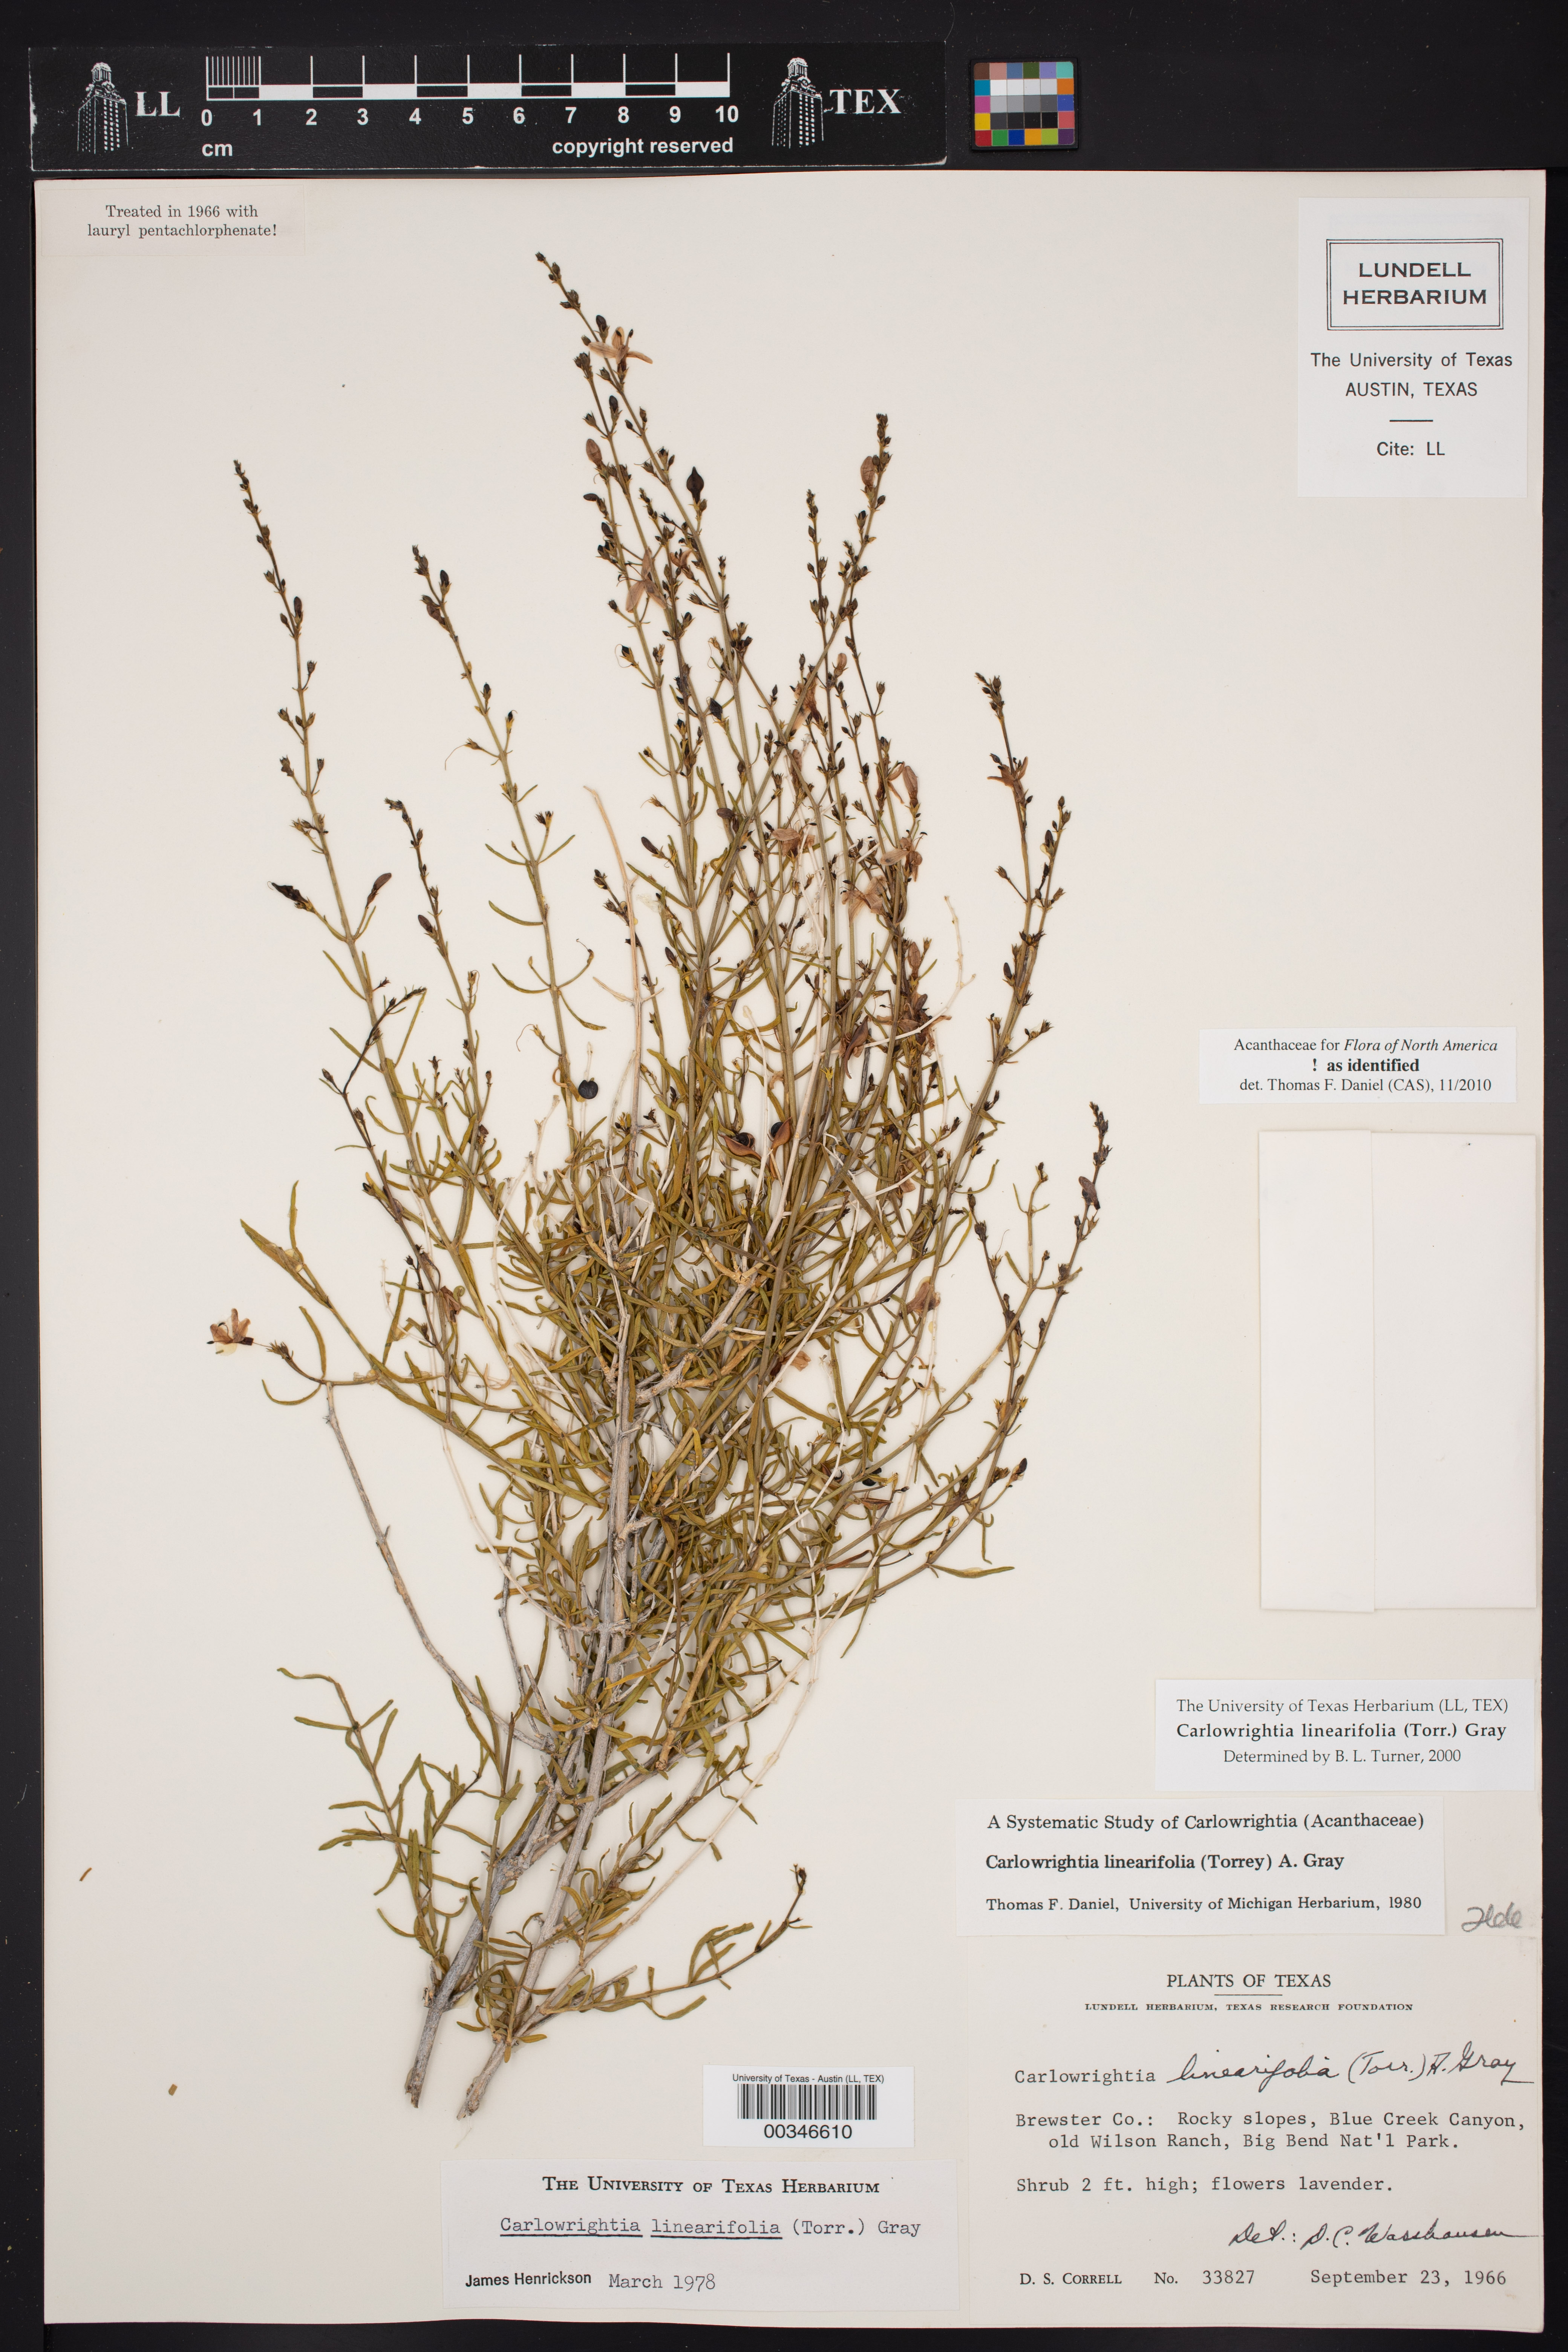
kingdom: Plantae
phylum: Tracheophyta
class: Magnoliopsida
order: Lamiales
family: Acanthaceae
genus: Carlowrightia
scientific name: Carlowrightia linearifolia
